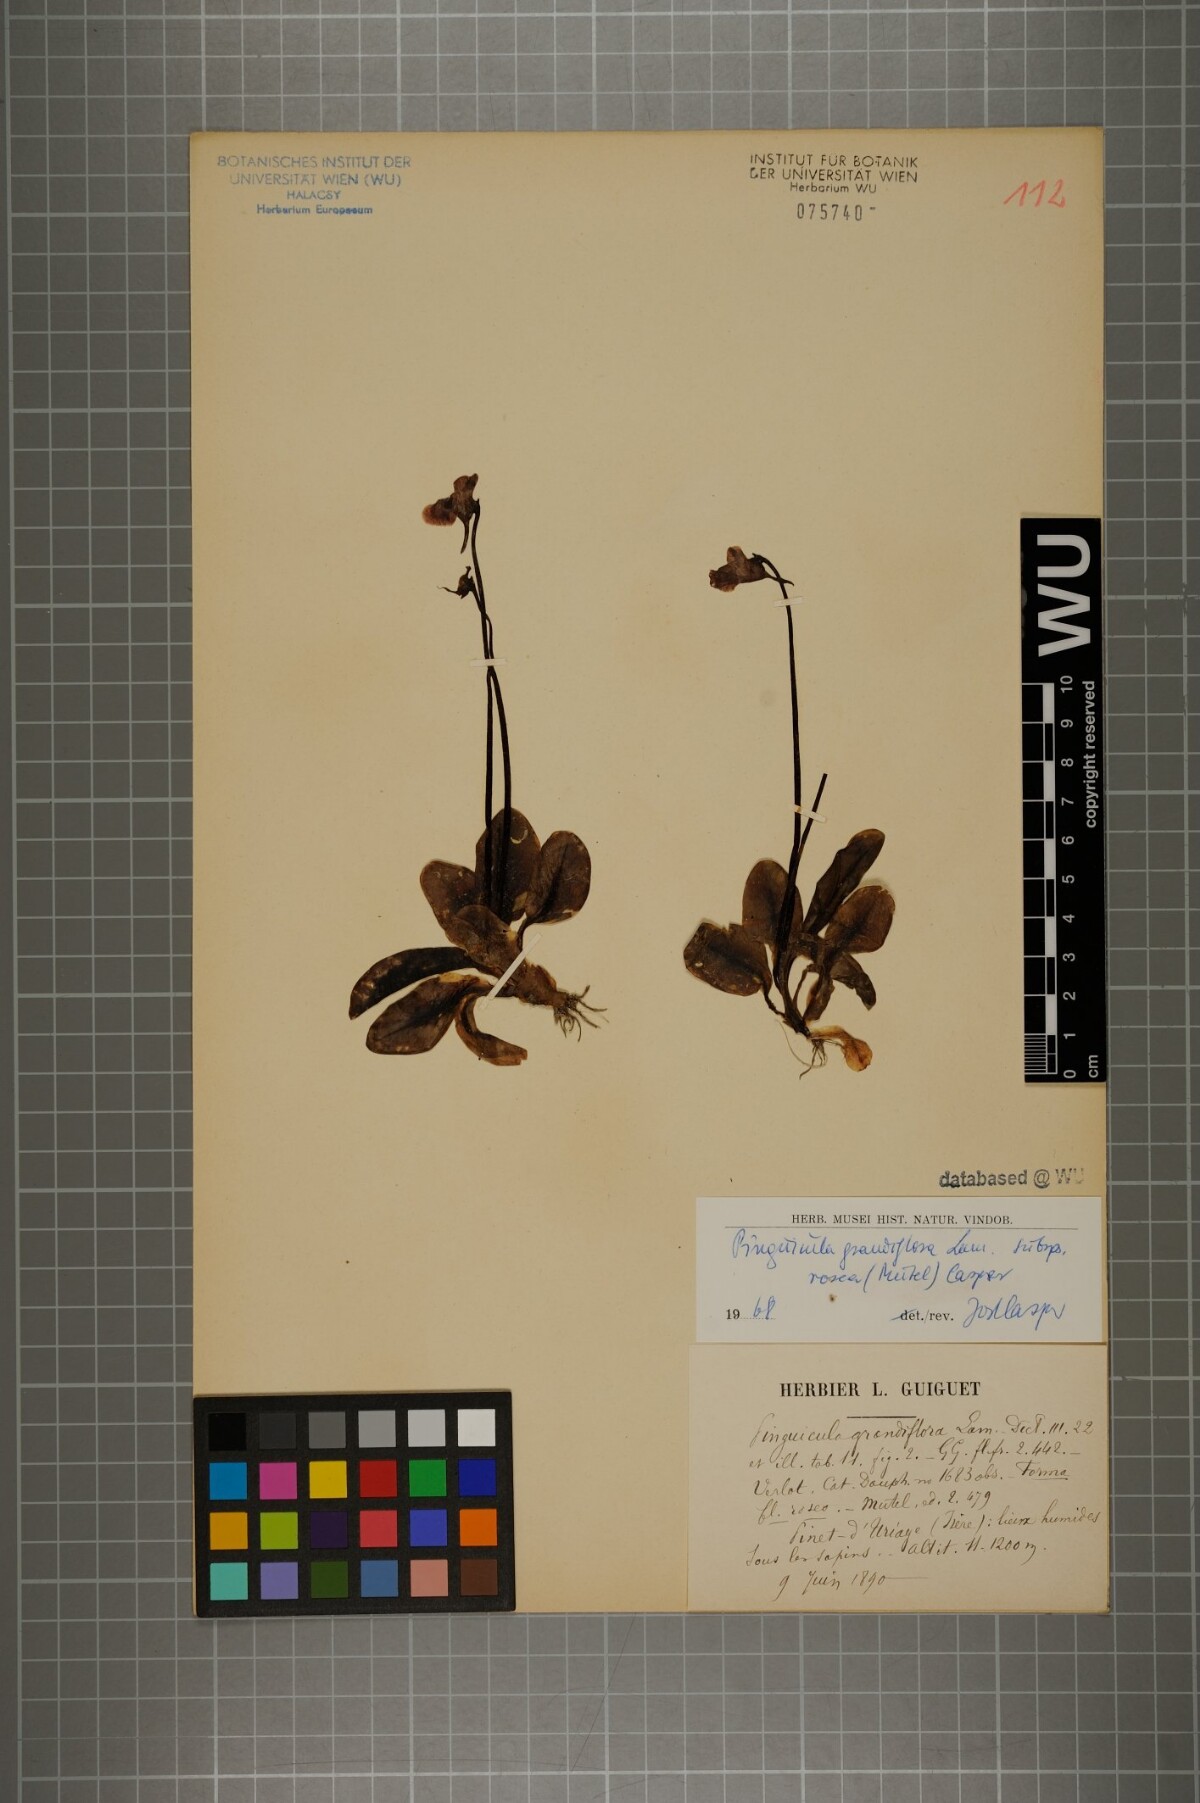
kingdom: Plantae
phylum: Tracheophyta
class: Magnoliopsida
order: Lamiales
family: Lentibulariaceae
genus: Pinguicula
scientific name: Pinguicula grandiflora
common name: Large-flowered butterwort
